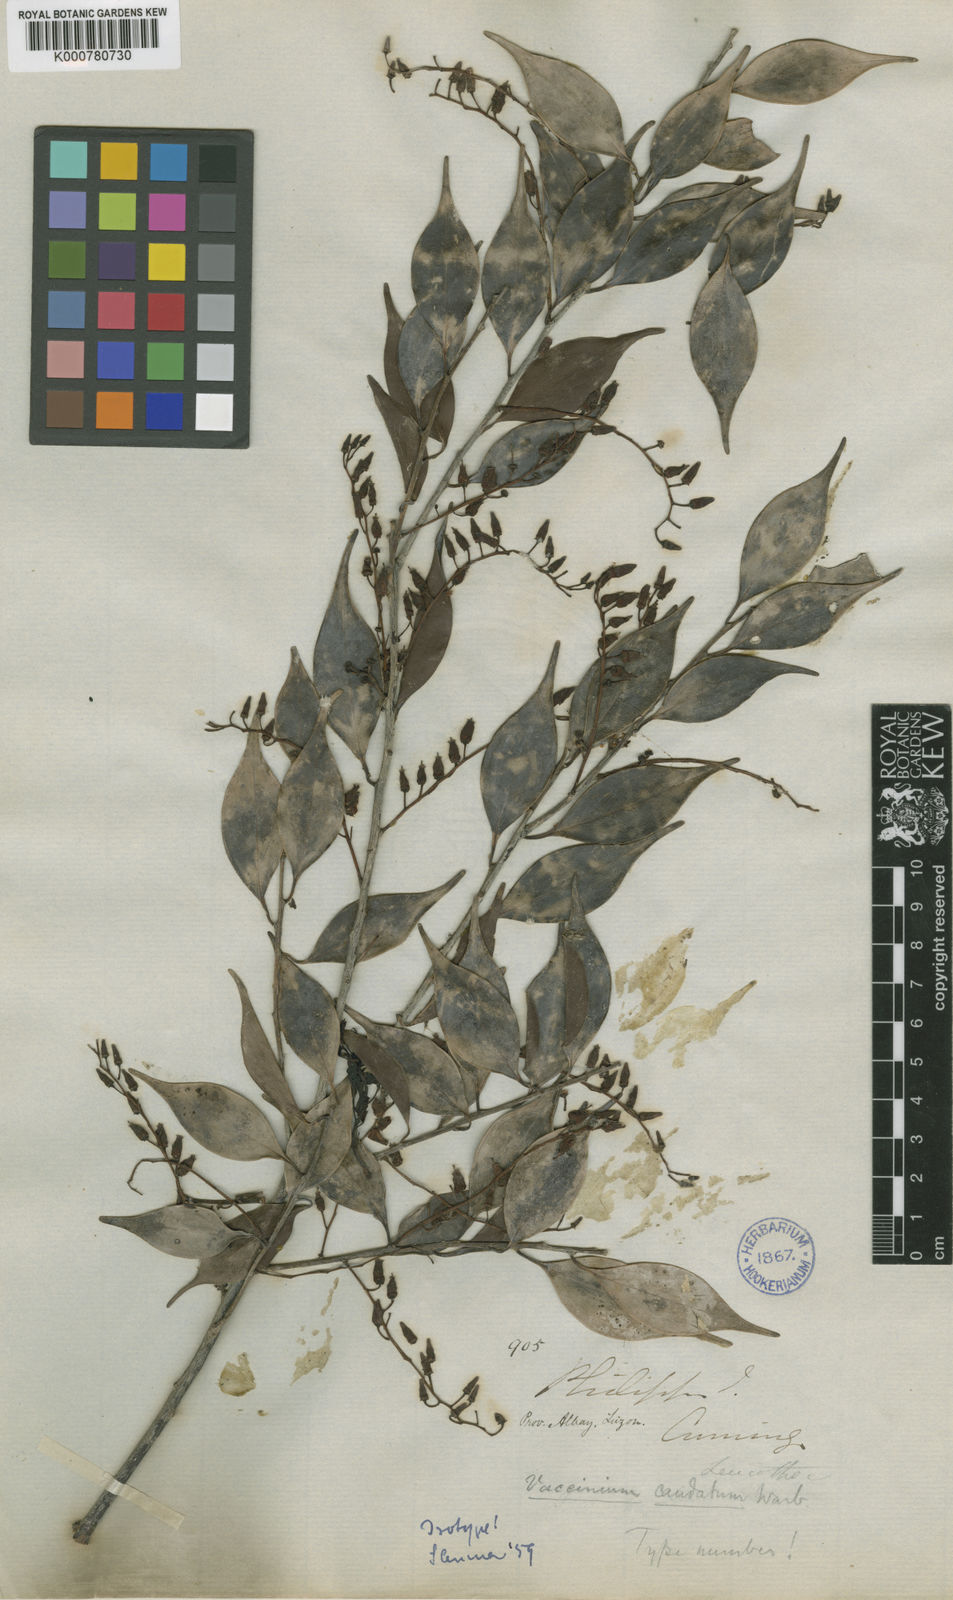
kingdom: Plantae
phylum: Tracheophyta
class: Magnoliopsida
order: Ericales
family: Ericaceae
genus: Vaccinium
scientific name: Vaccinium caudatum
